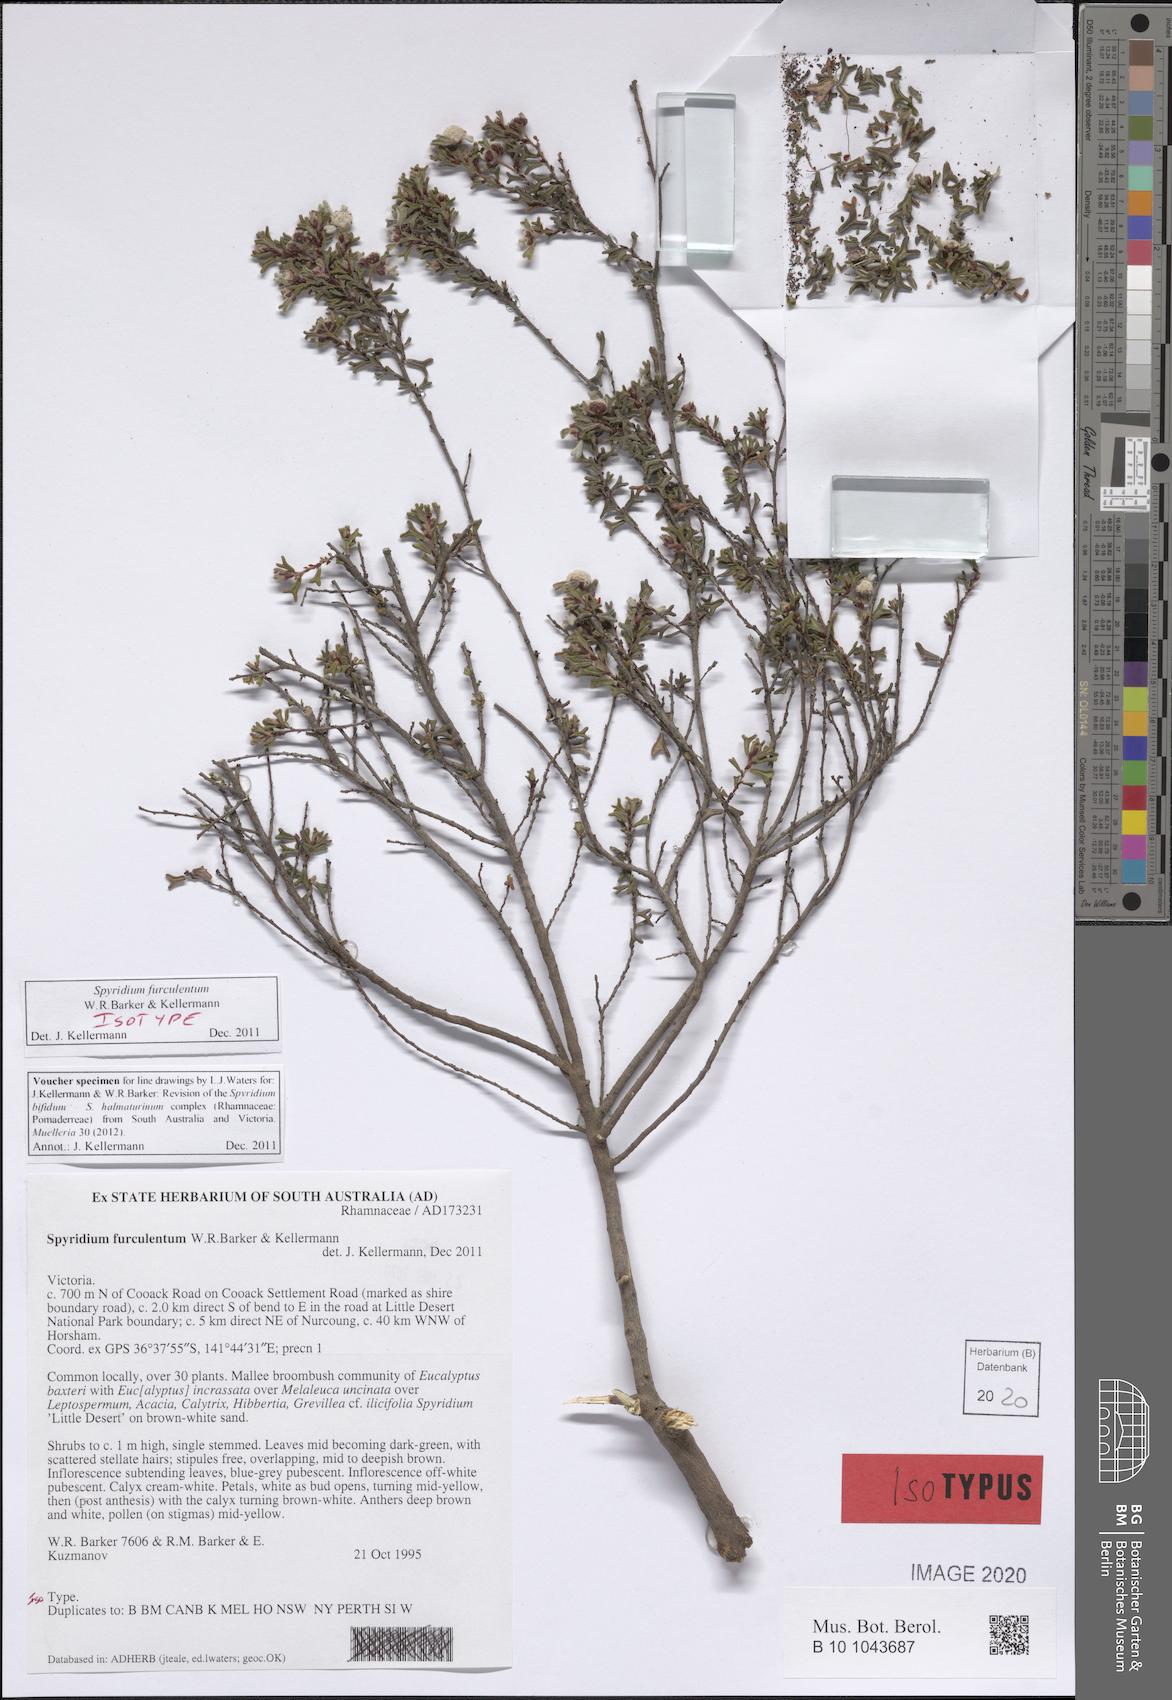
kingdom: Plantae
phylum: Tracheophyta
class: Magnoliopsida
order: Rosales
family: Rhamnaceae
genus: Spyridium
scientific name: Spyridium furculentum
